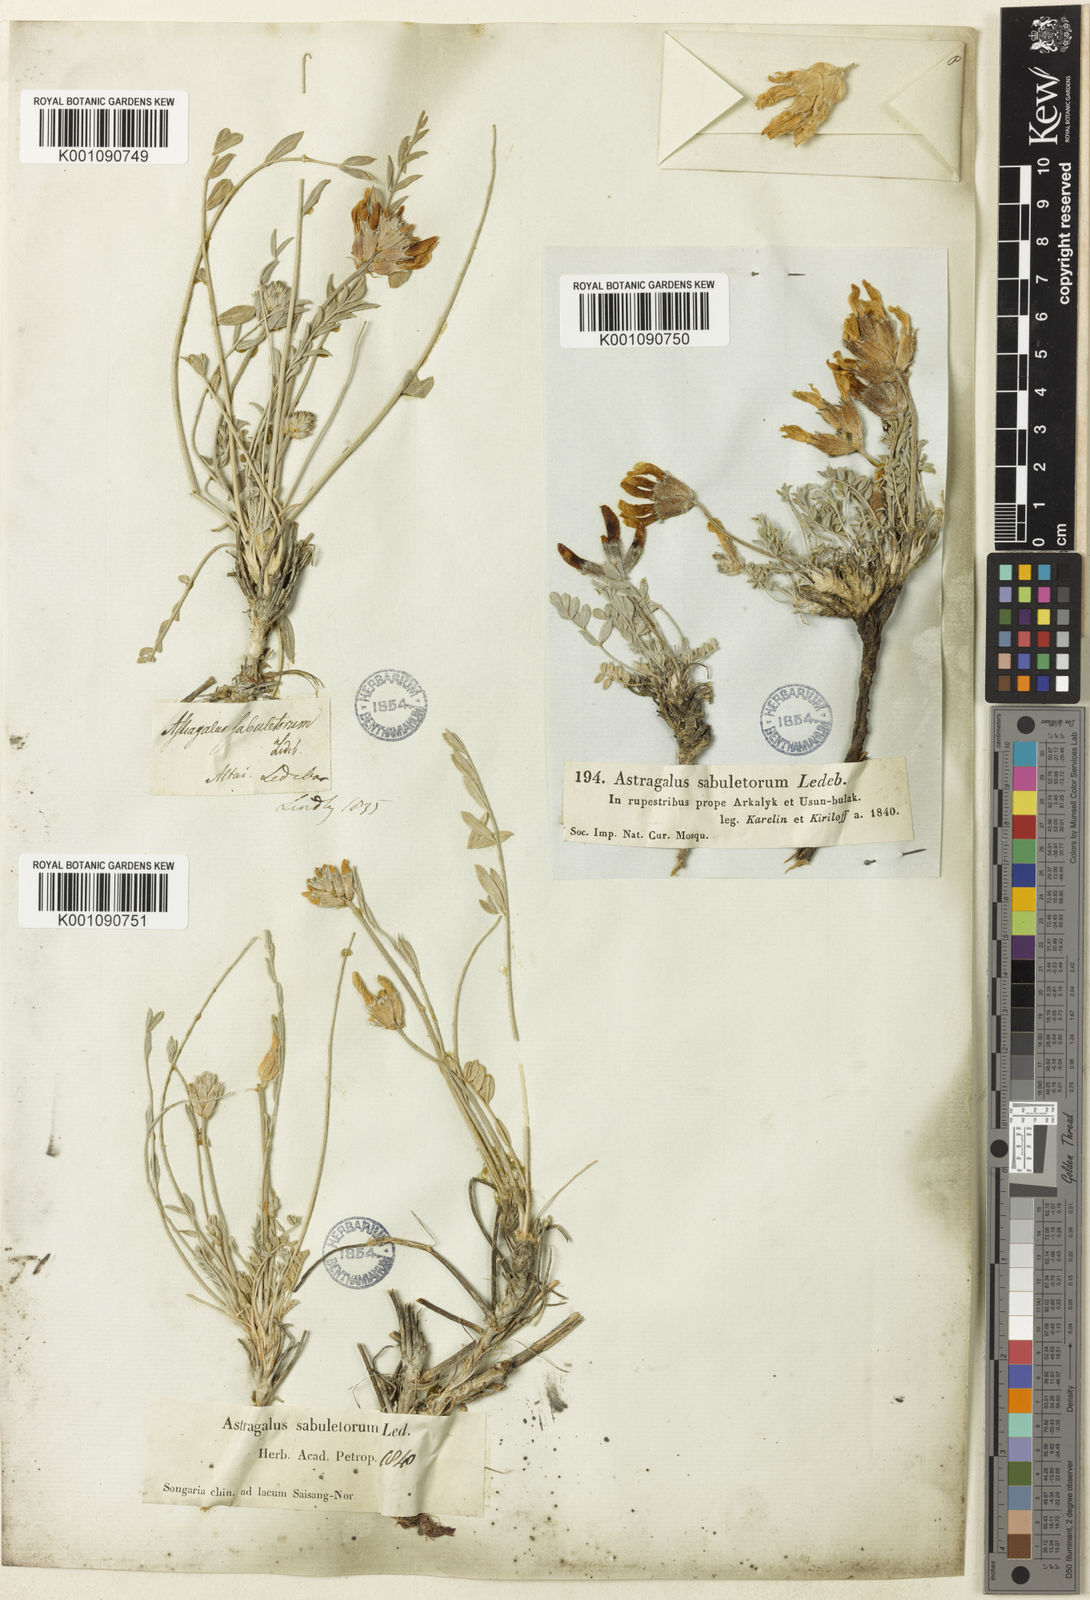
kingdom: Plantae
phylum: Tracheophyta
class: Magnoliopsida
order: Fabales
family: Fabaceae
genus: Astragalus
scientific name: Astragalus
